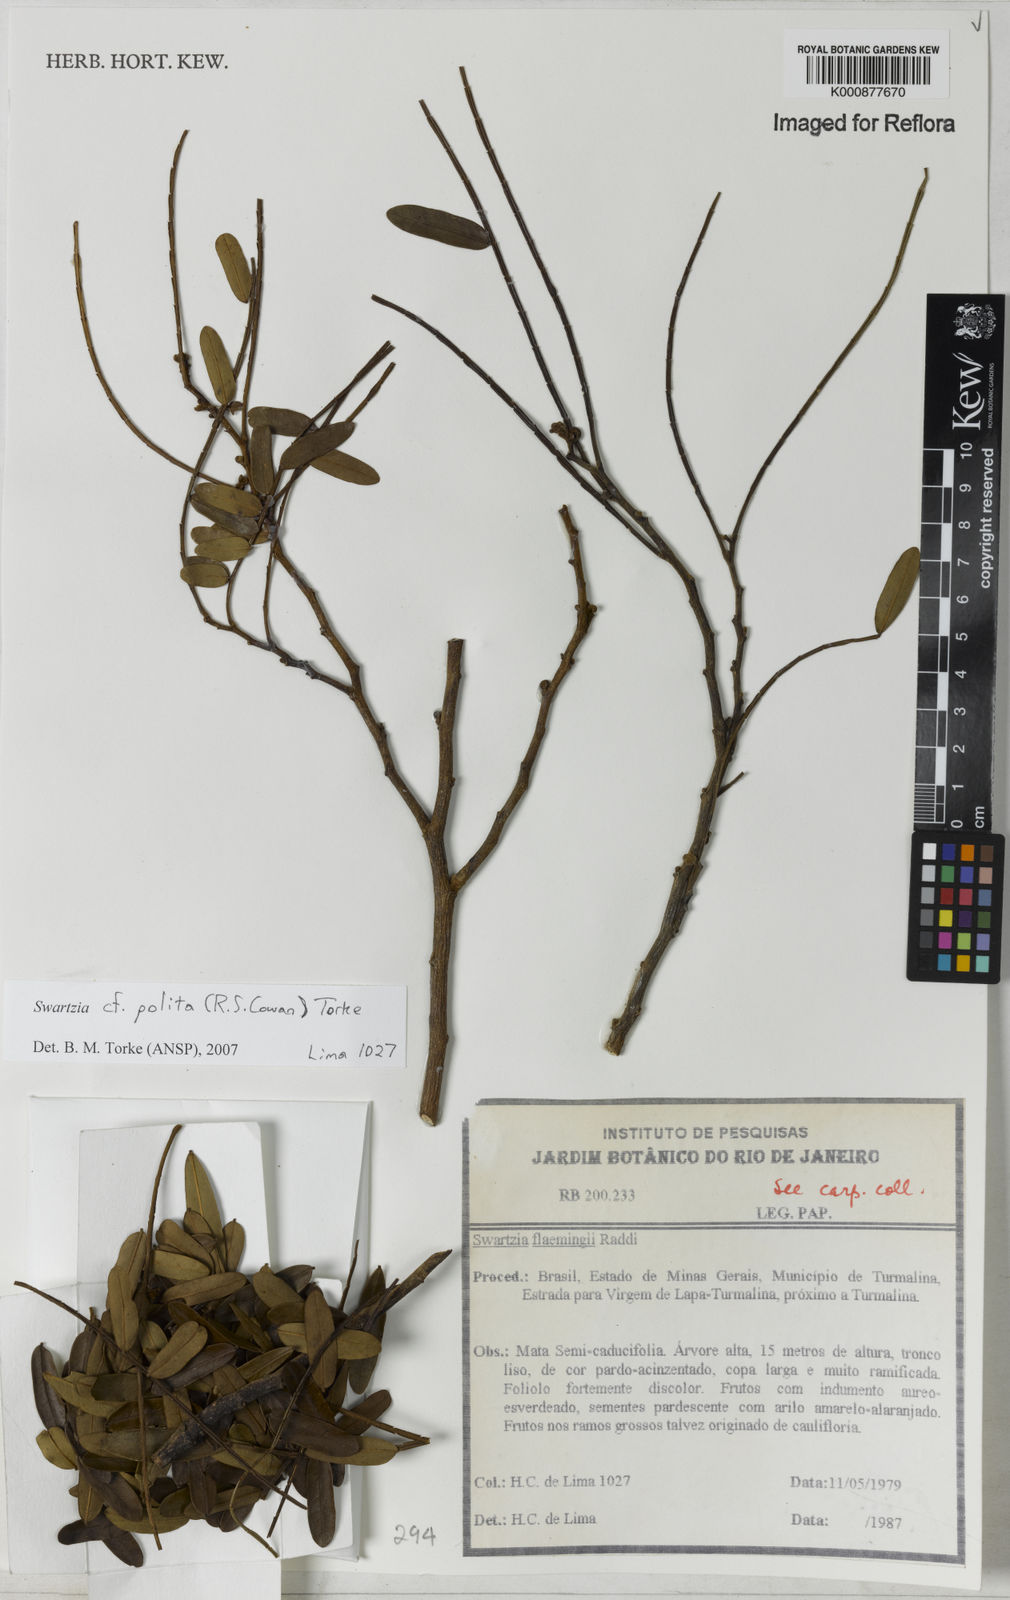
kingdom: Plantae
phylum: Tracheophyta
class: Magnoliopsida
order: Fabales
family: Fabaceae
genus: Swartzia
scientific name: Swartzia polita
